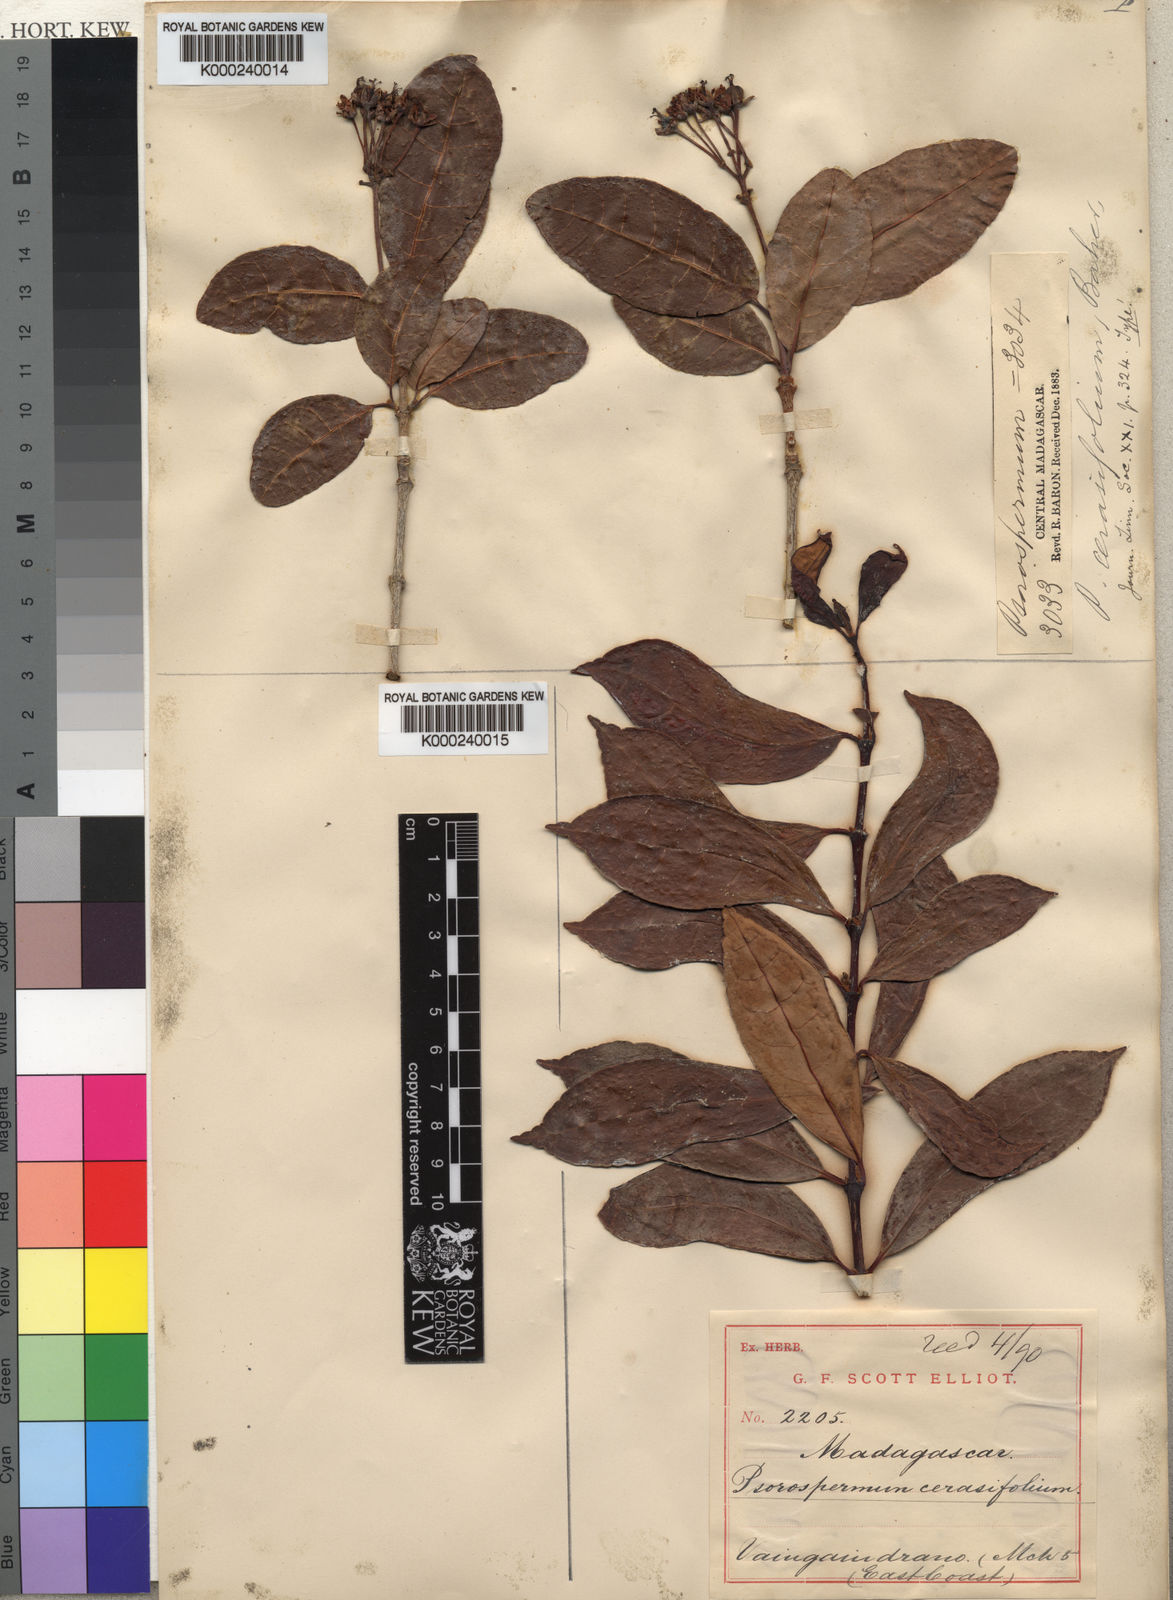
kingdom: Plantae
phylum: Tracheophyta
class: Magnoliopsida
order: Malpighiales
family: Hypericaceae
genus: Psorospermum
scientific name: Psorospermum cerasifolium
